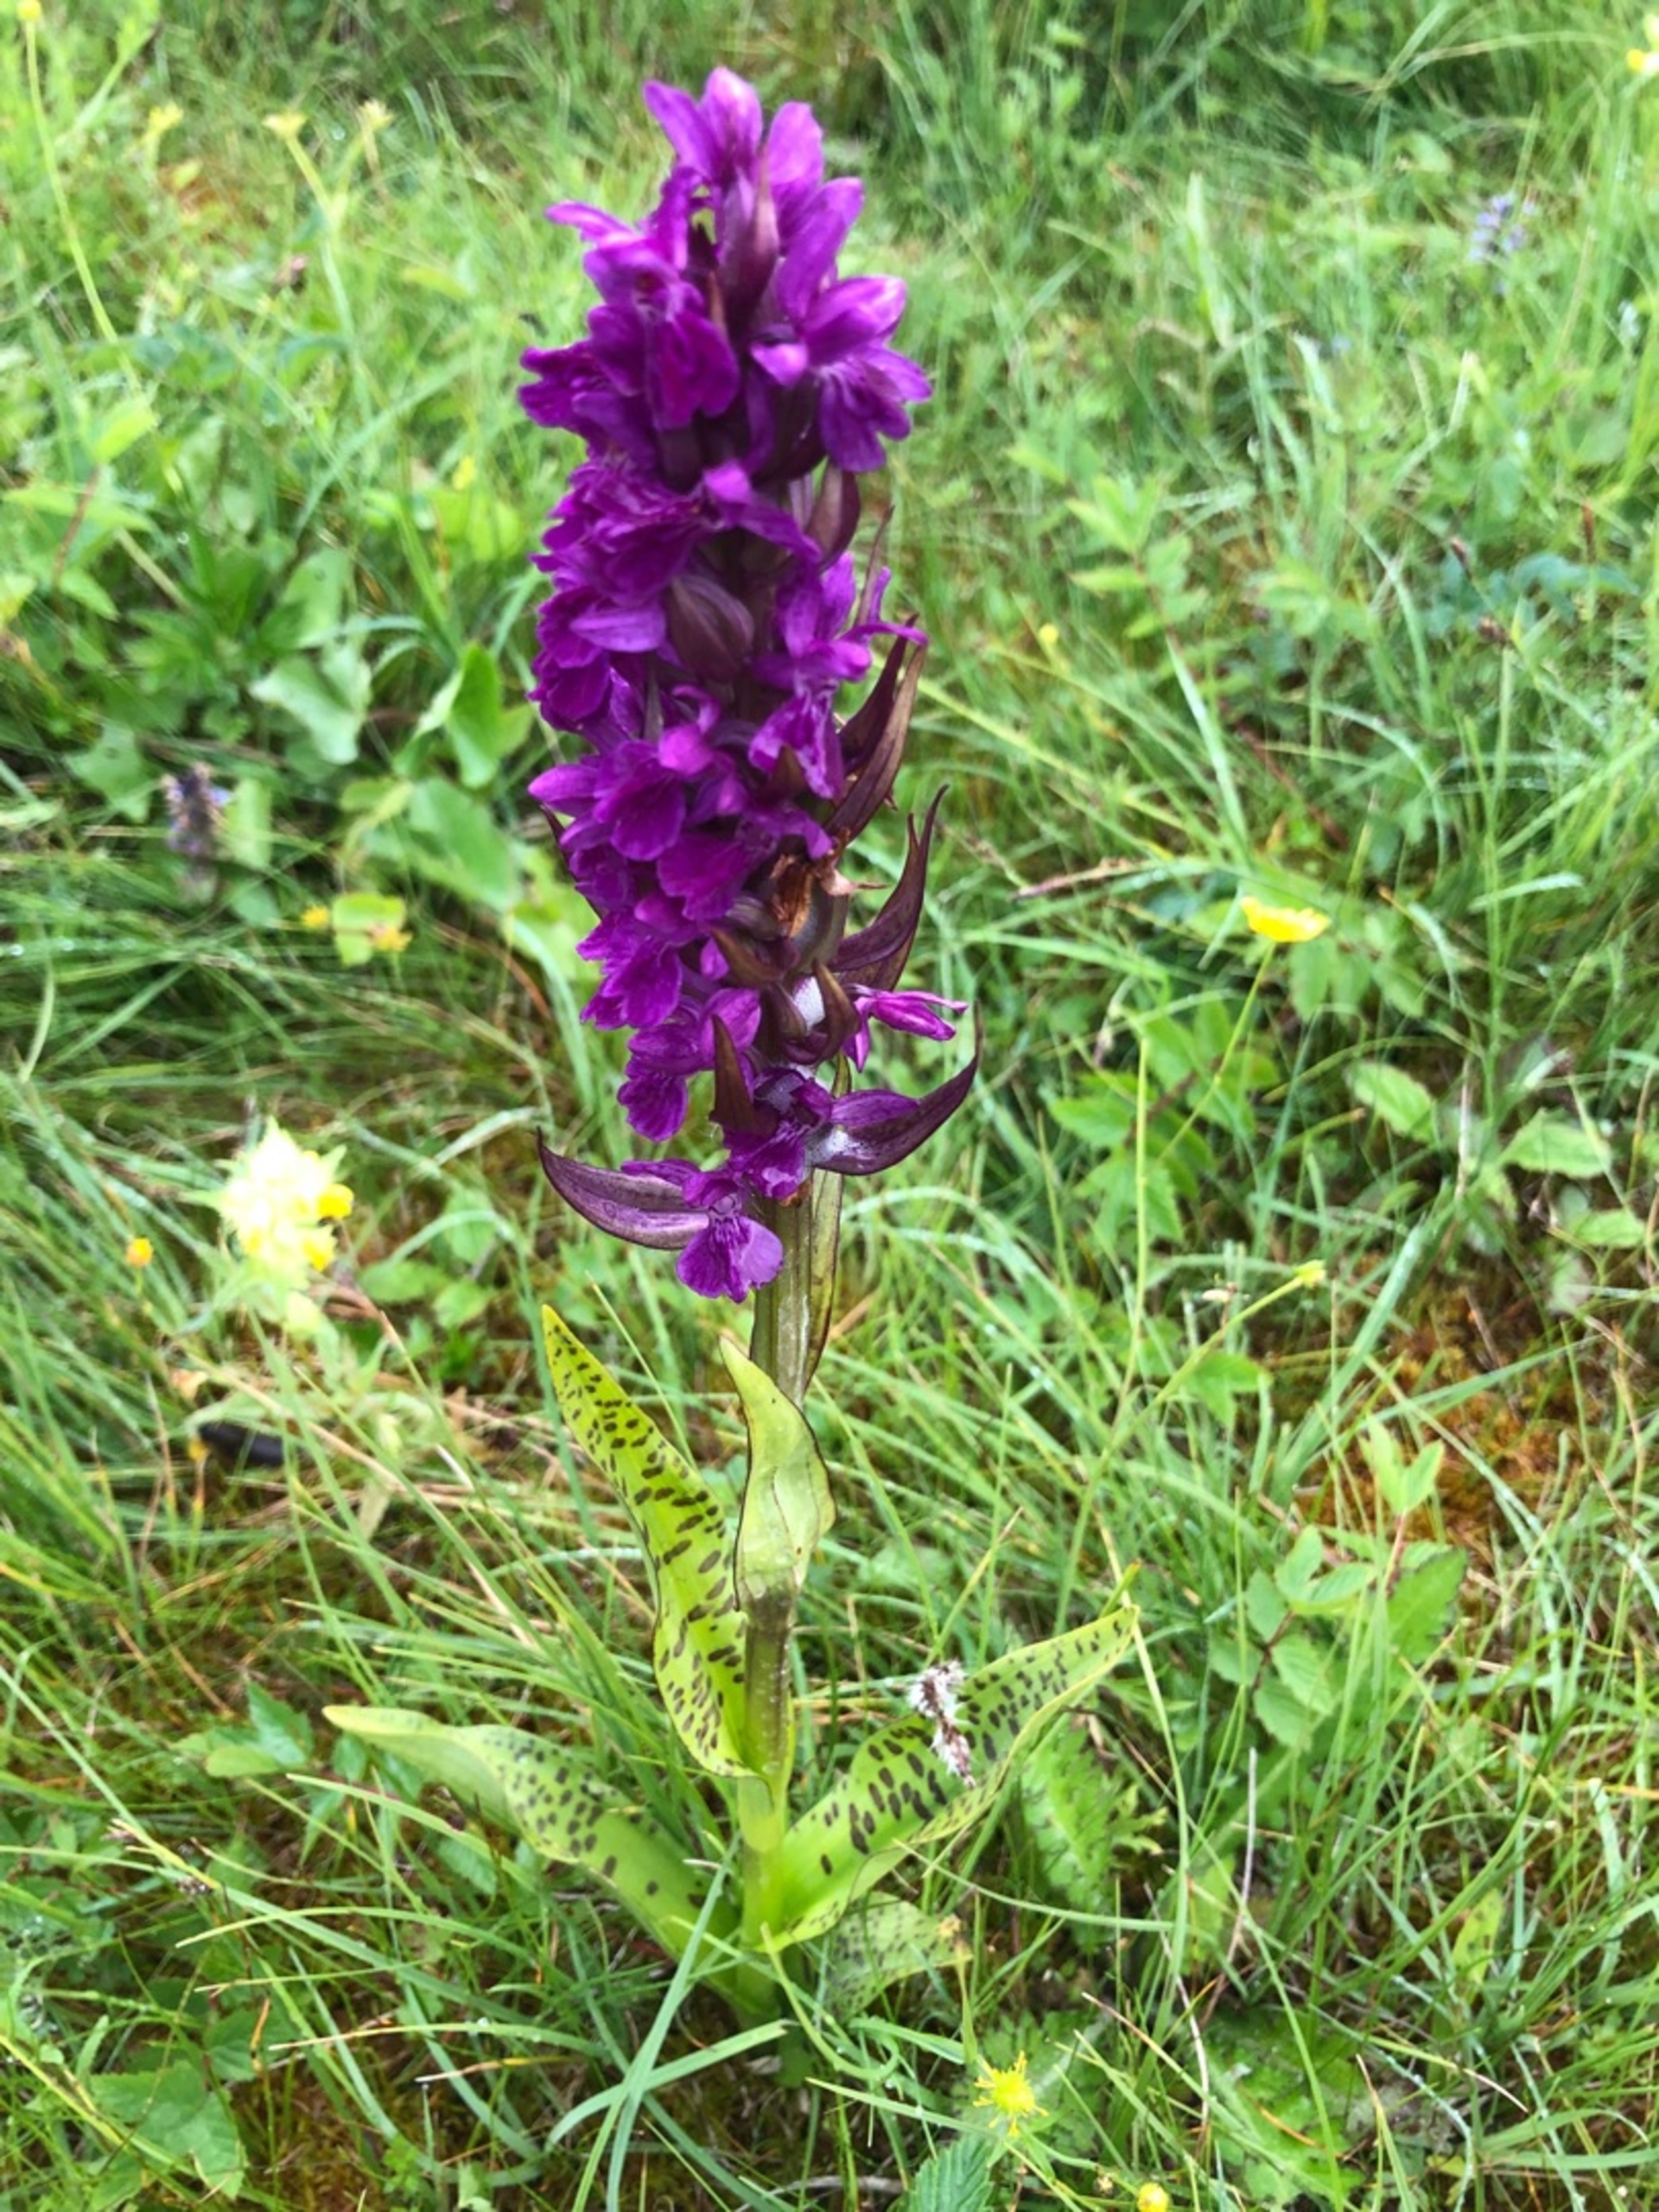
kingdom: Plantae
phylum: Tracheophyta
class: Liliopsida
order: Asparagales
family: Orchidaceae
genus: Dactylorhiza
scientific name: Dactylorhiza majalis
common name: Maj-gøgeurt
